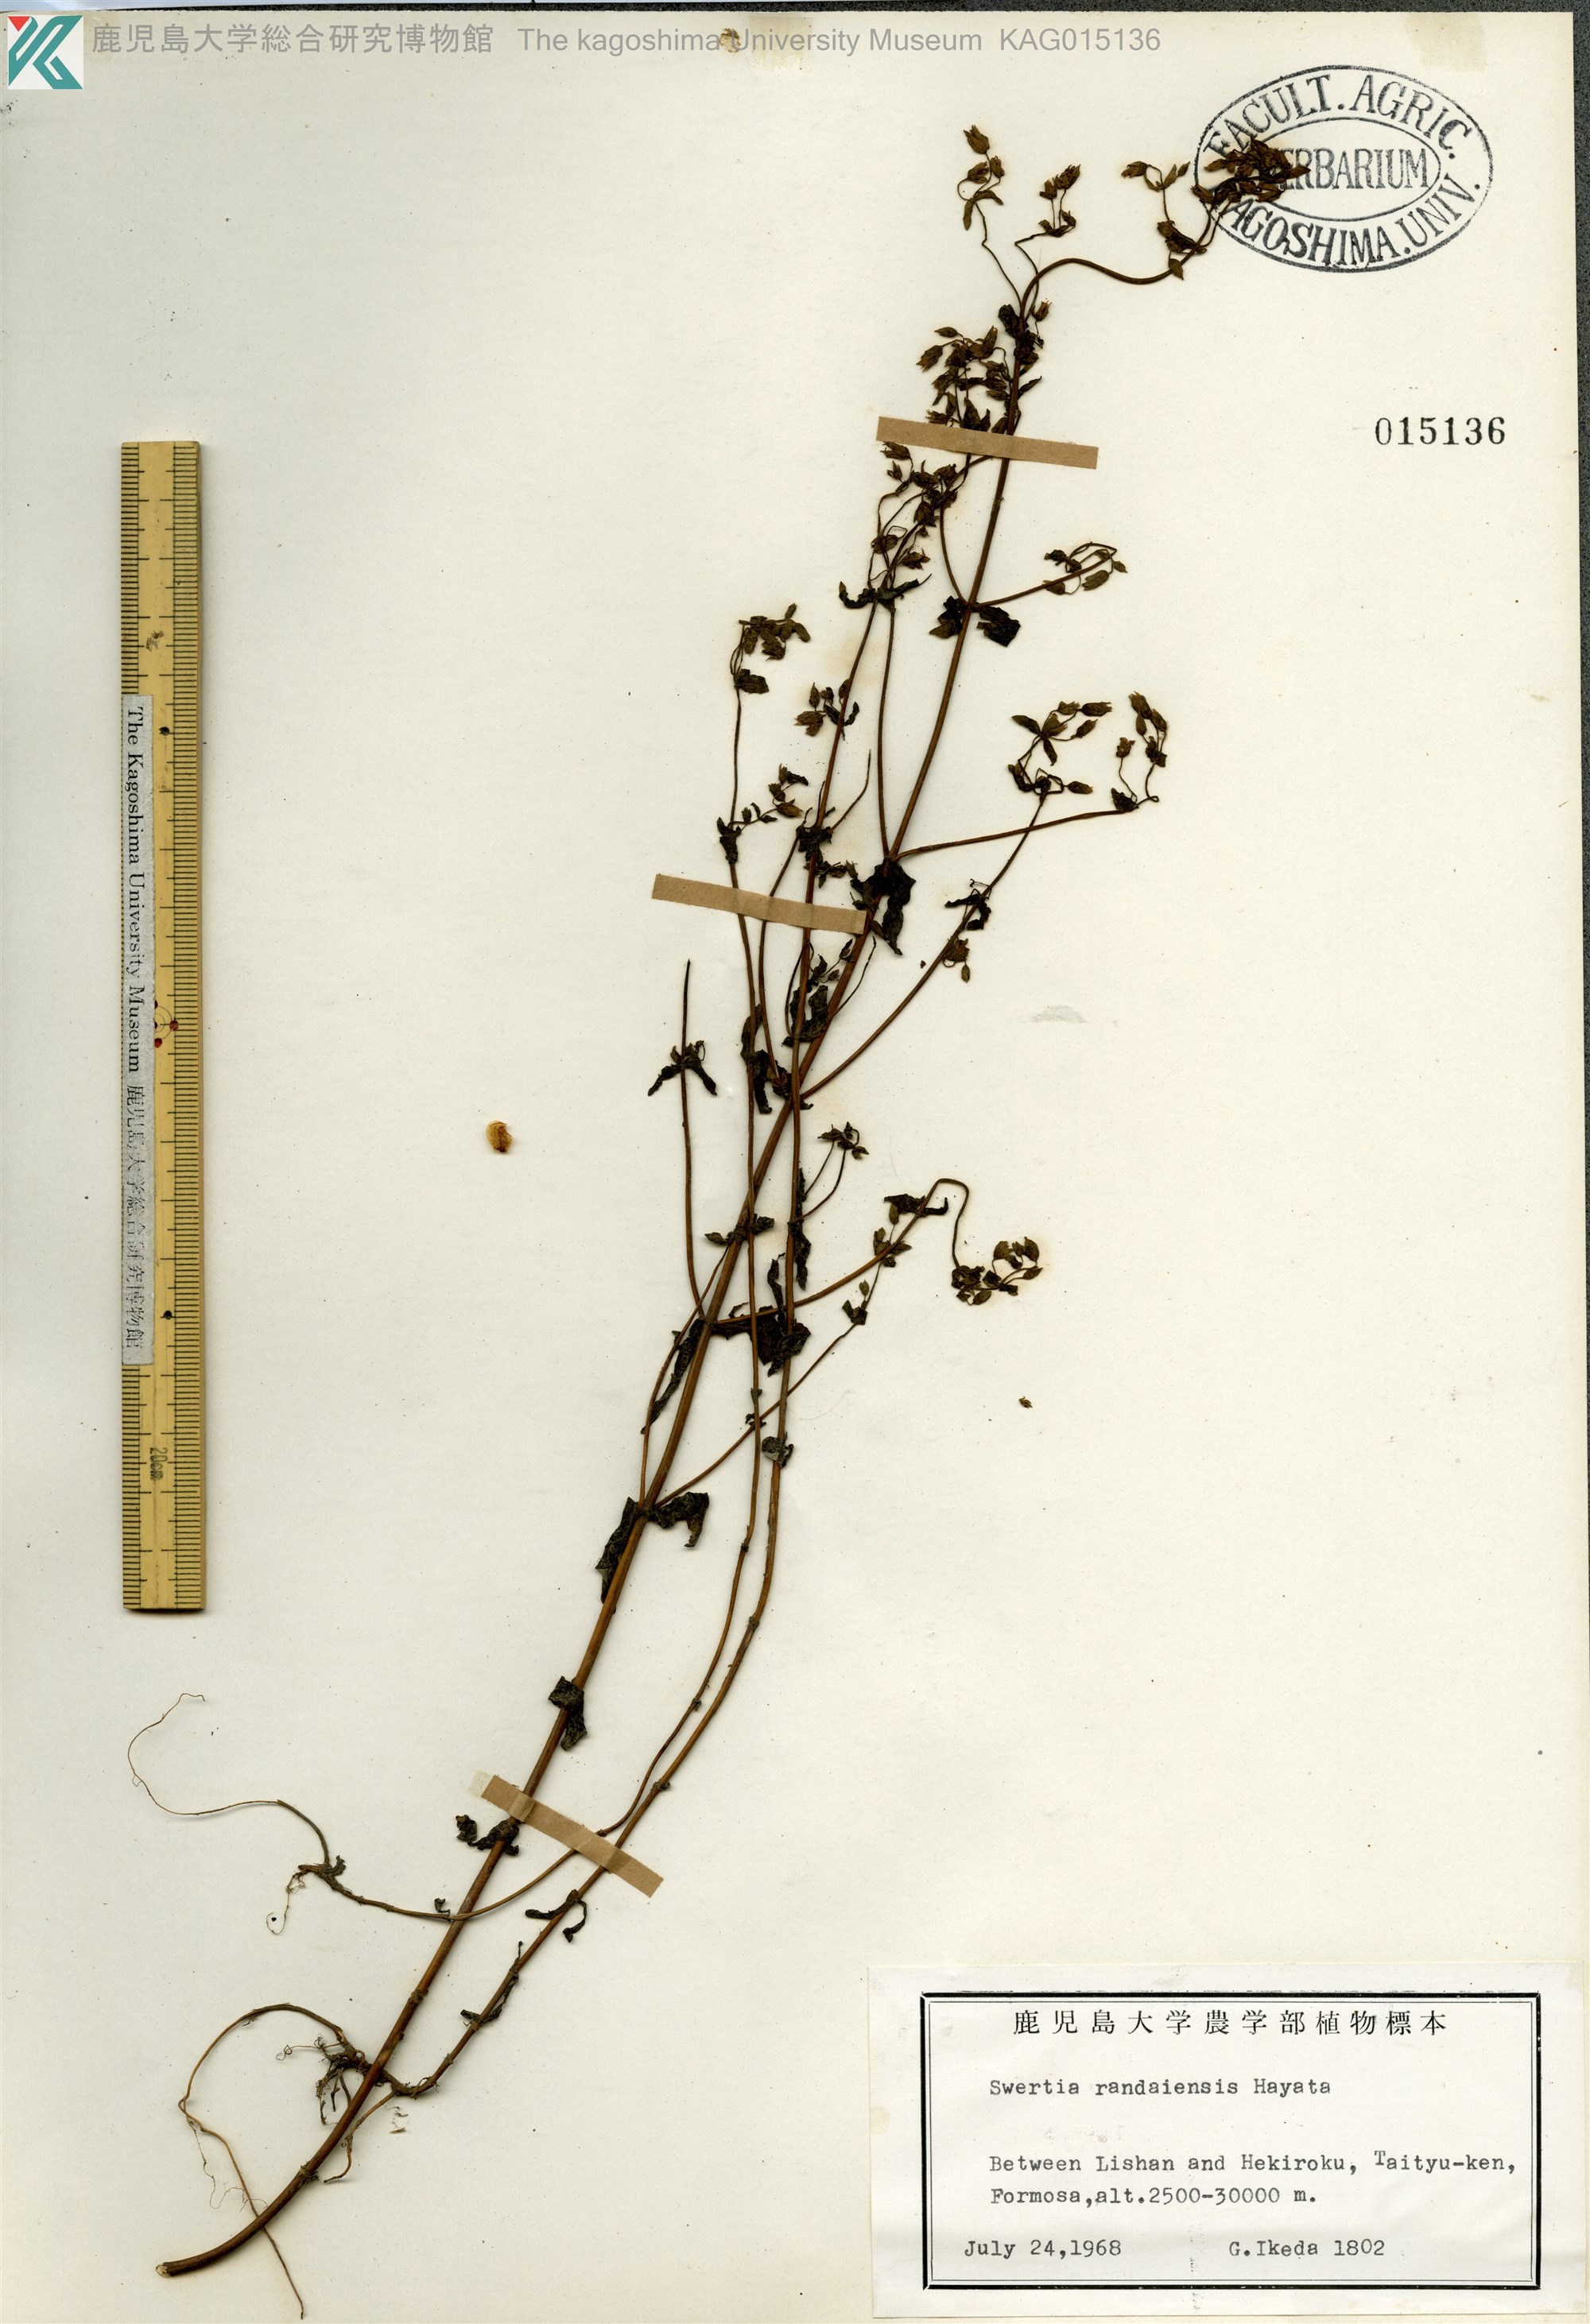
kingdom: Plantae
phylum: Tracheophyta
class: Magnoliopsida
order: Gentianales
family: Gentianaceae
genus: Swertia
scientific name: Swertia macrosperma
